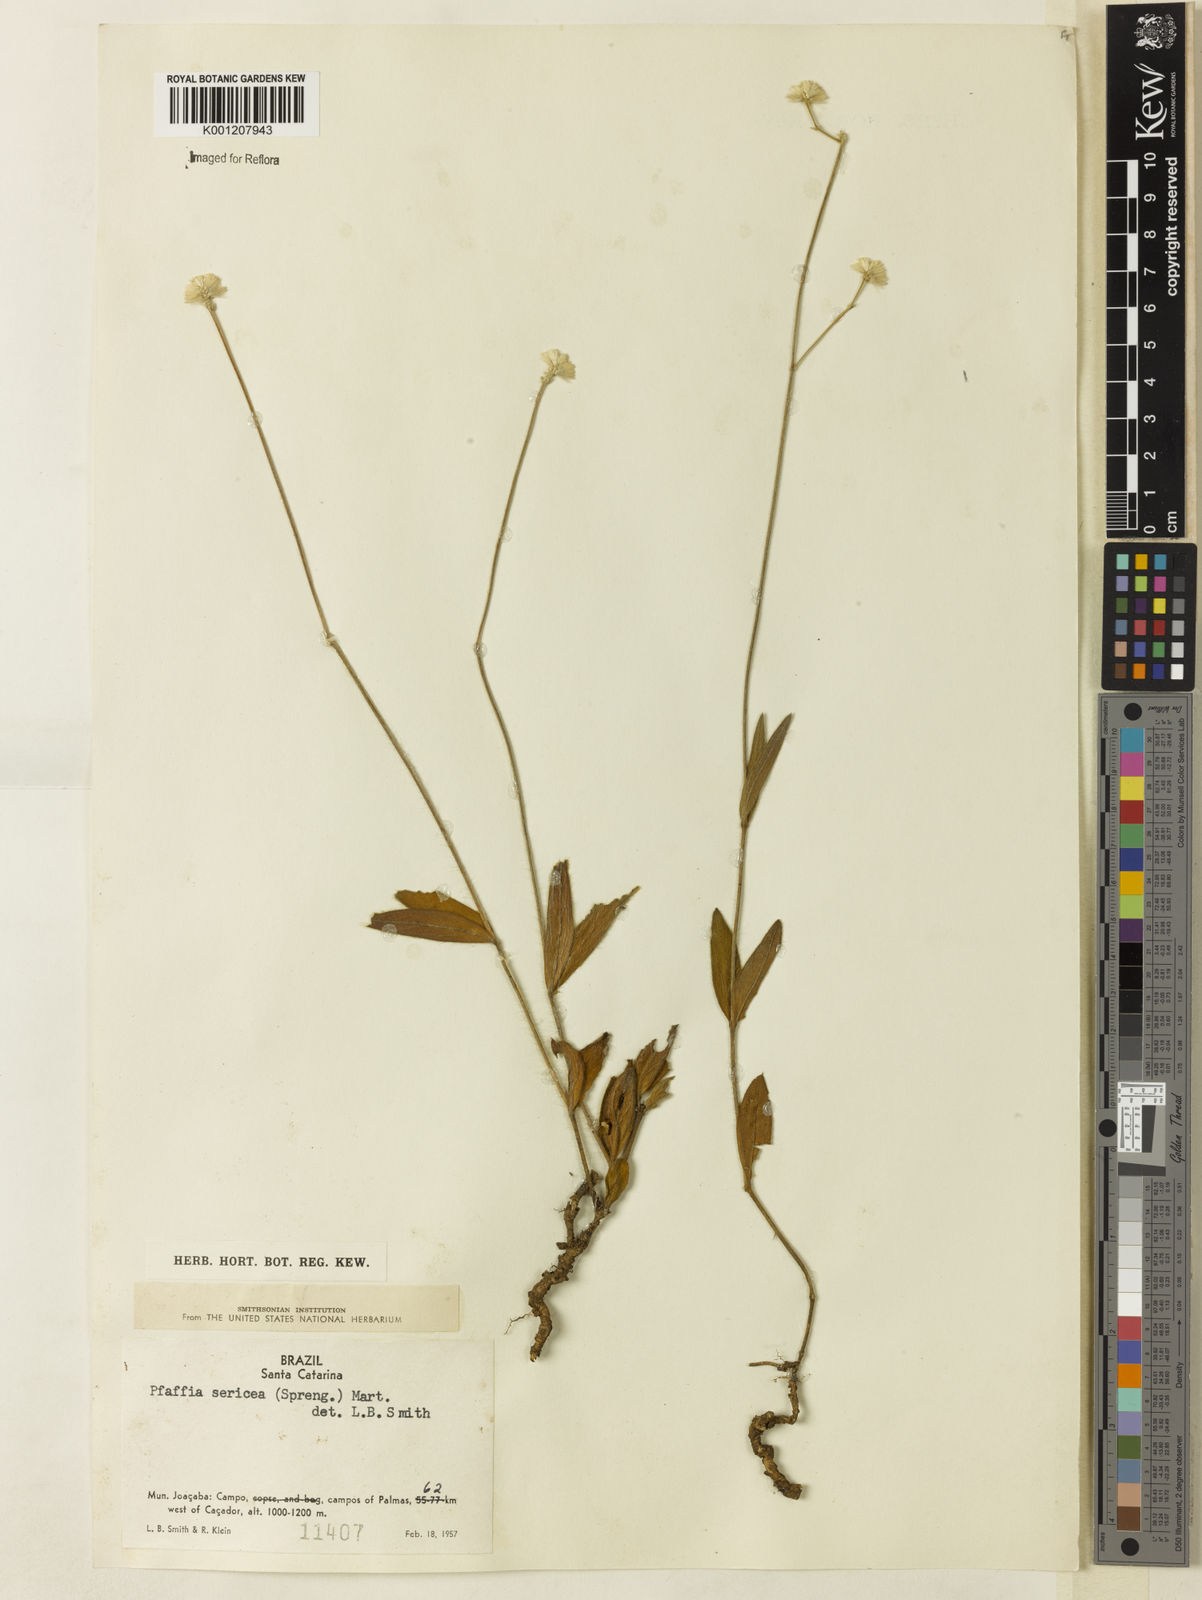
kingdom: Plantae
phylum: Tracheophyta
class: Magnoliopsida
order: Caryophyllales
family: Amaranthaceae
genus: Pfaffia
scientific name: Pfaffia tuberosa
